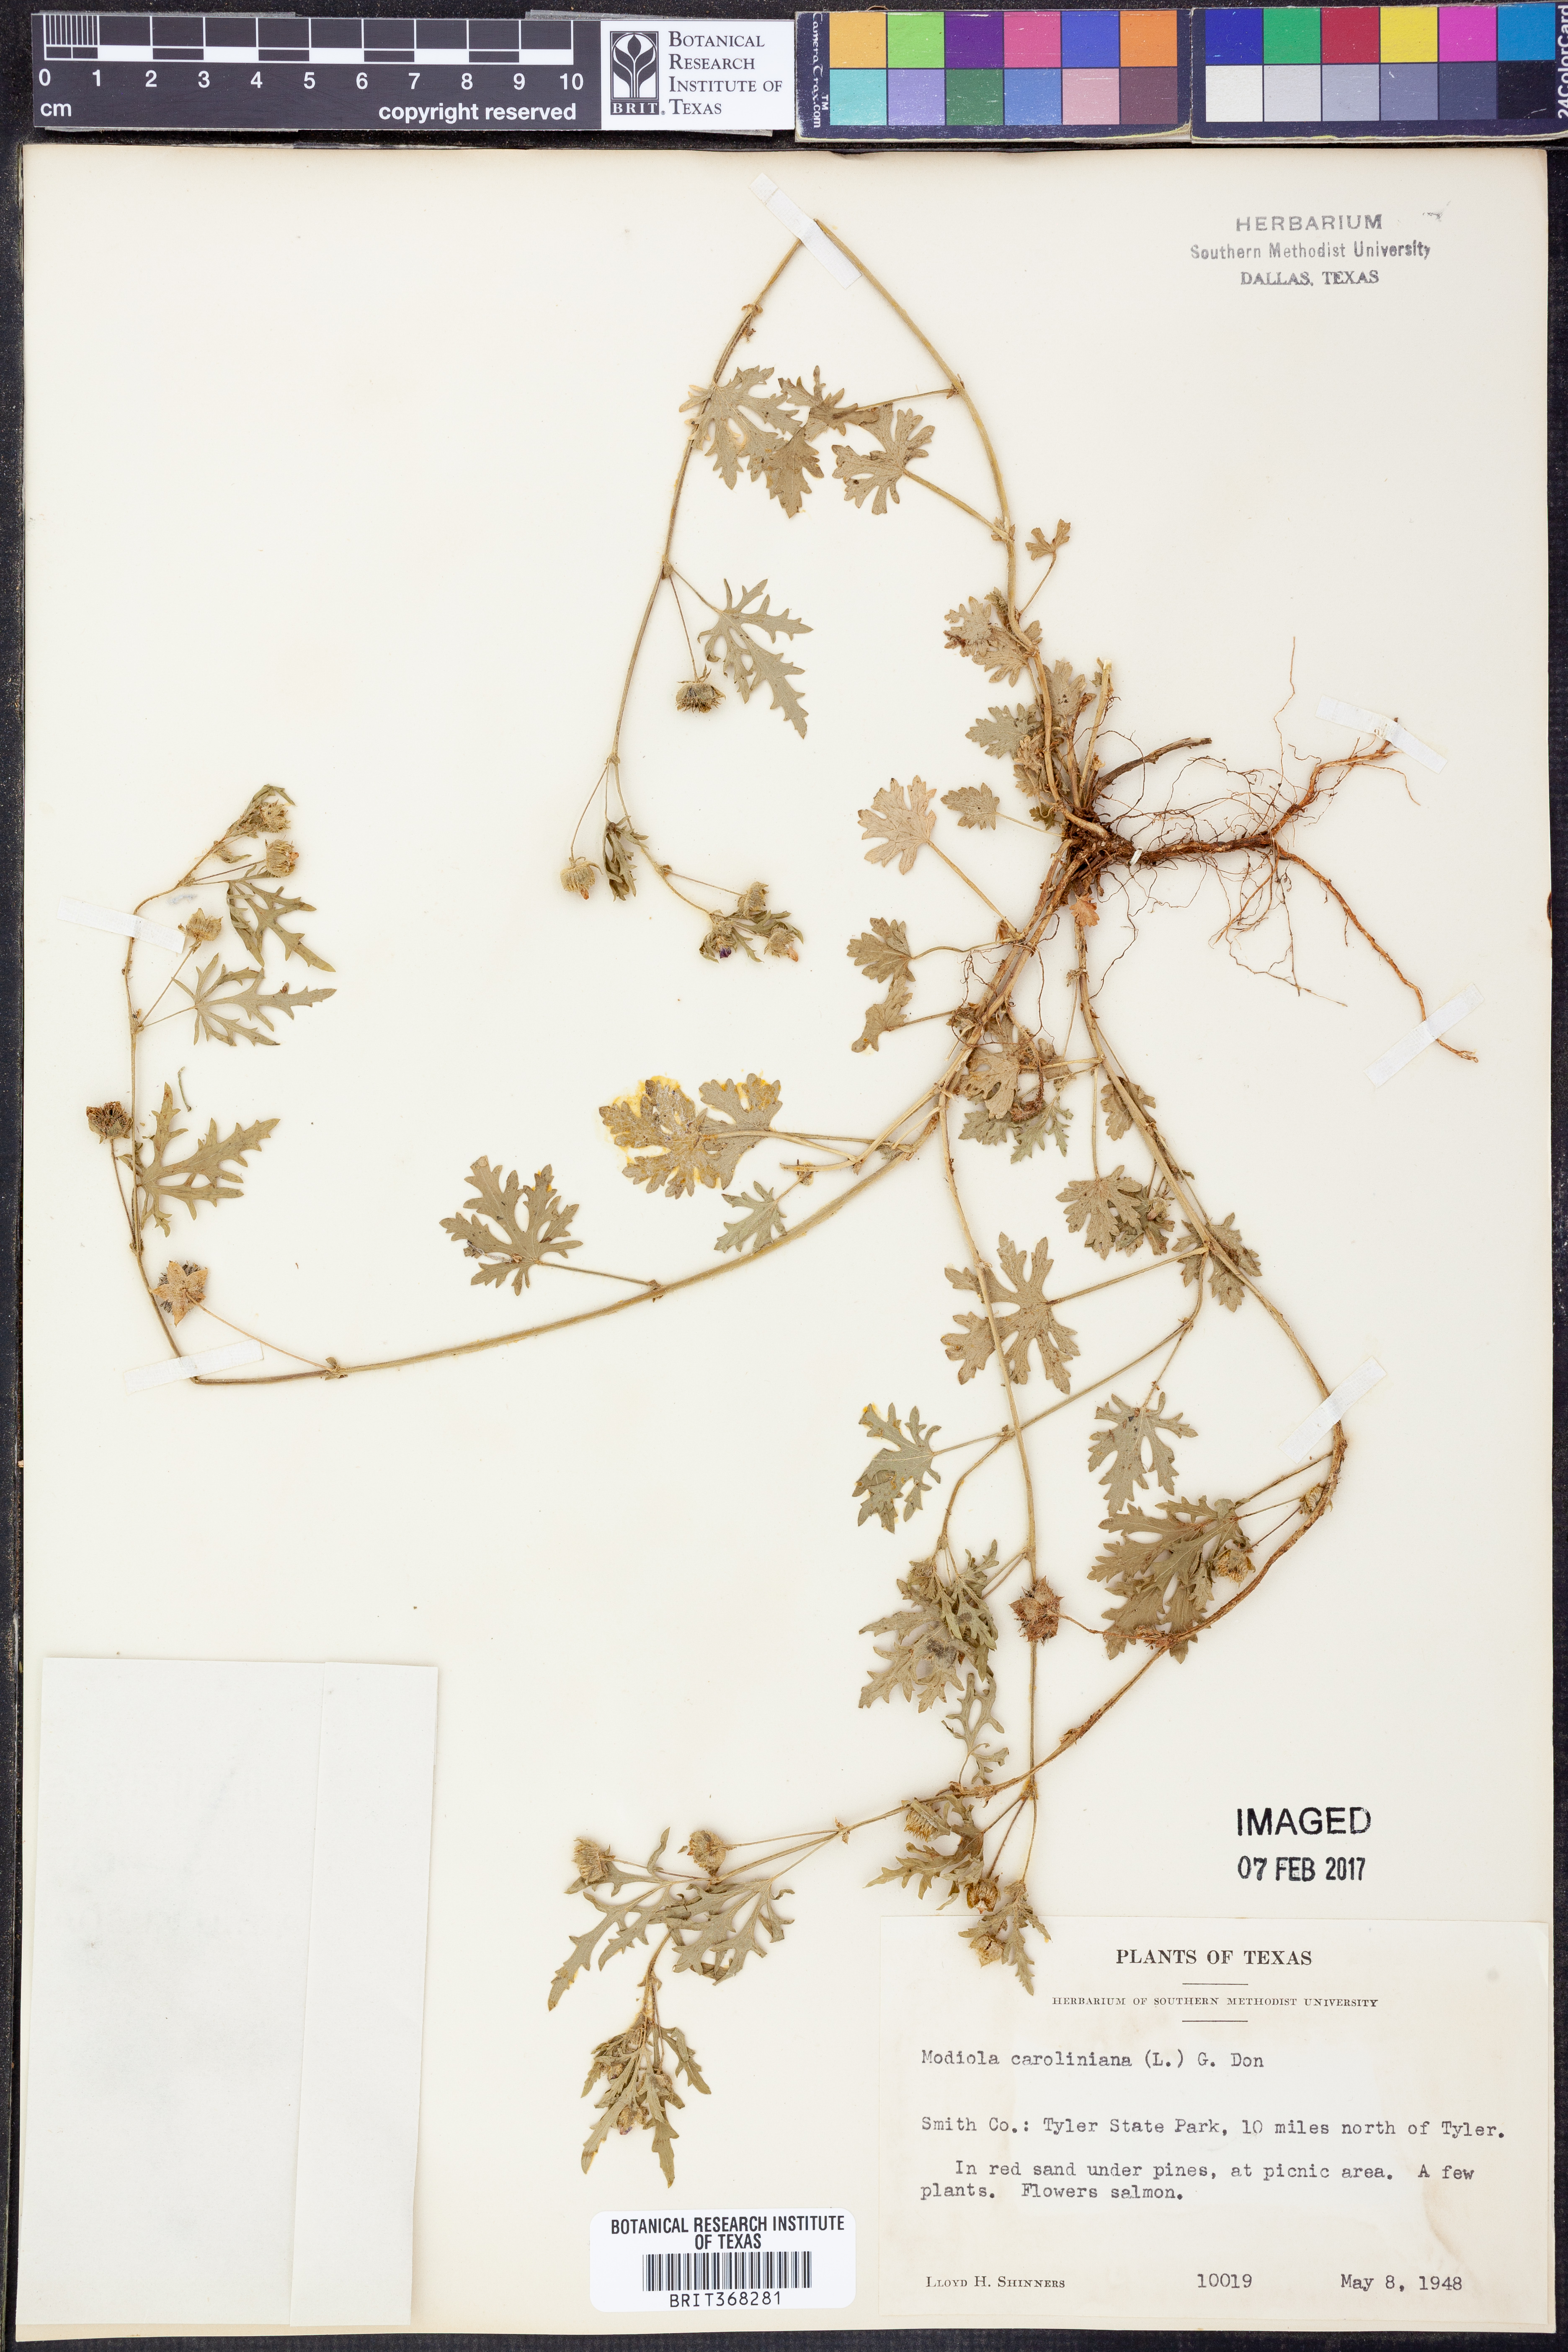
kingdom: Plantae
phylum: Tracheophyta
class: Magnoliopsida
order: Malvales
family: Malvaceae
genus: Modiola
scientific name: Modiola caroliniana
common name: Carolina bristlemallow
